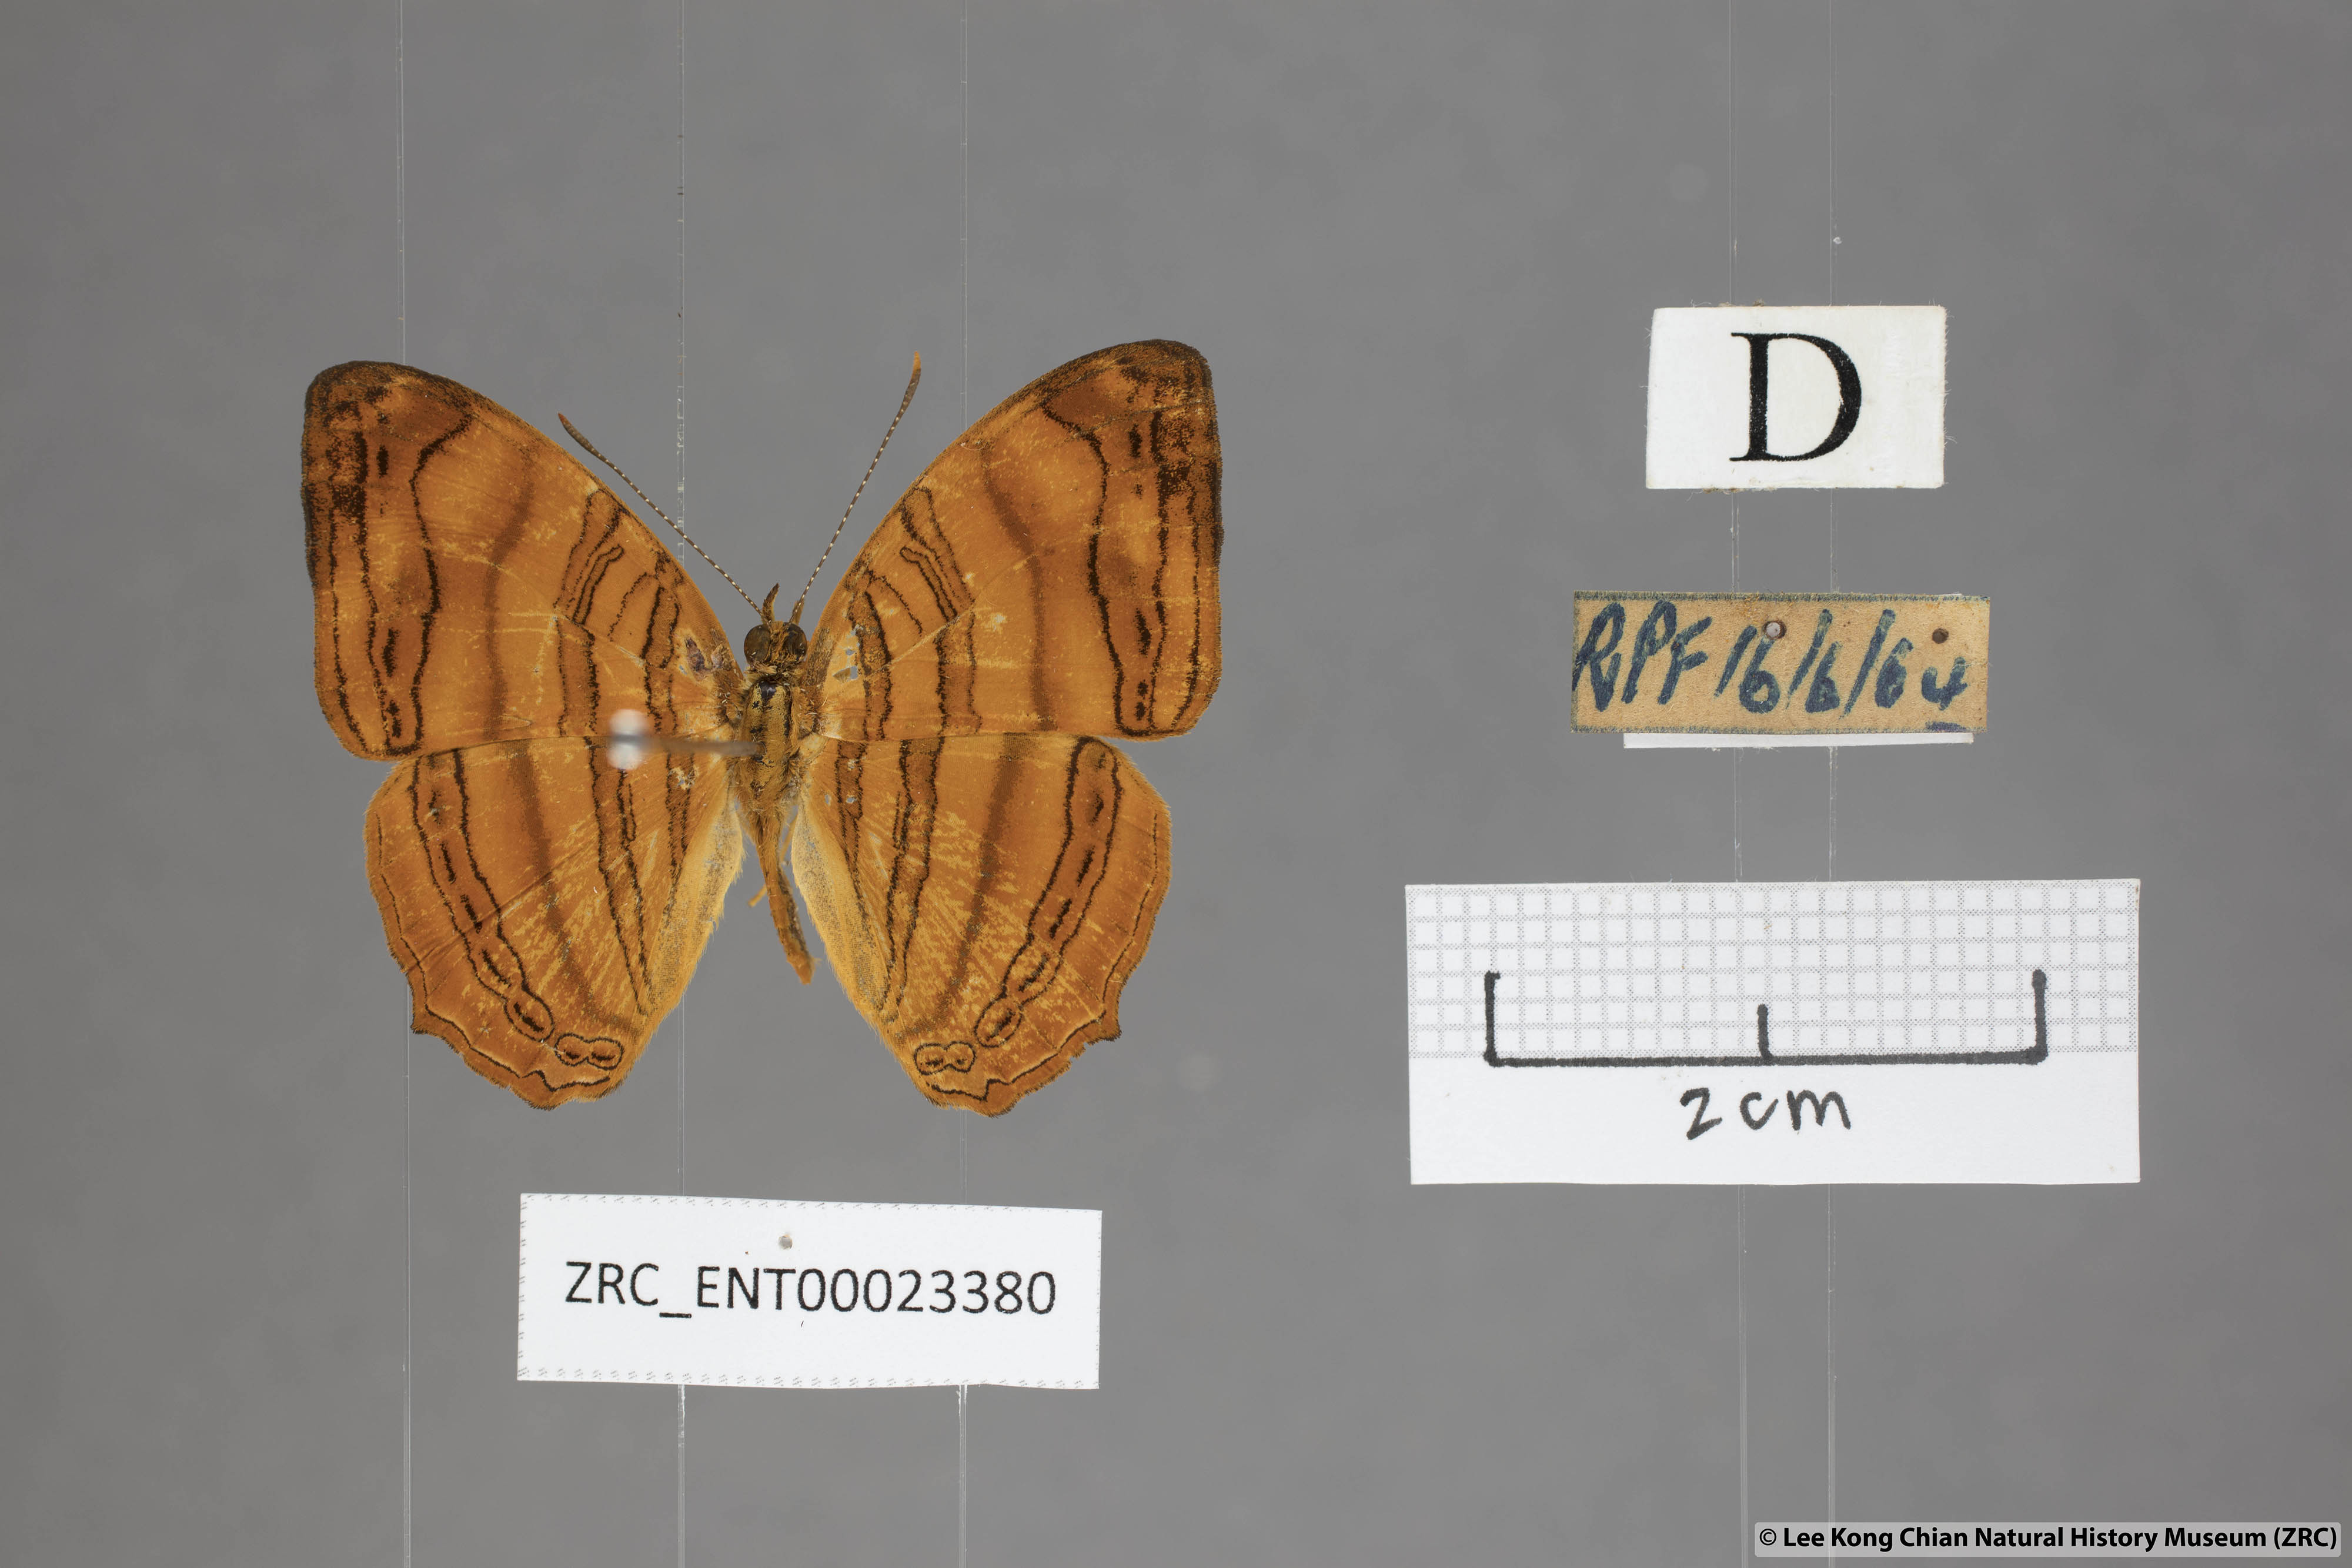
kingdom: Animalia
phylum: Arthropoda
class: Insecta
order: Lepidoptera
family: Nymphalidae
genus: Chersonesia
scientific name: Chersonesia rahria
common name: Wavy maplet
